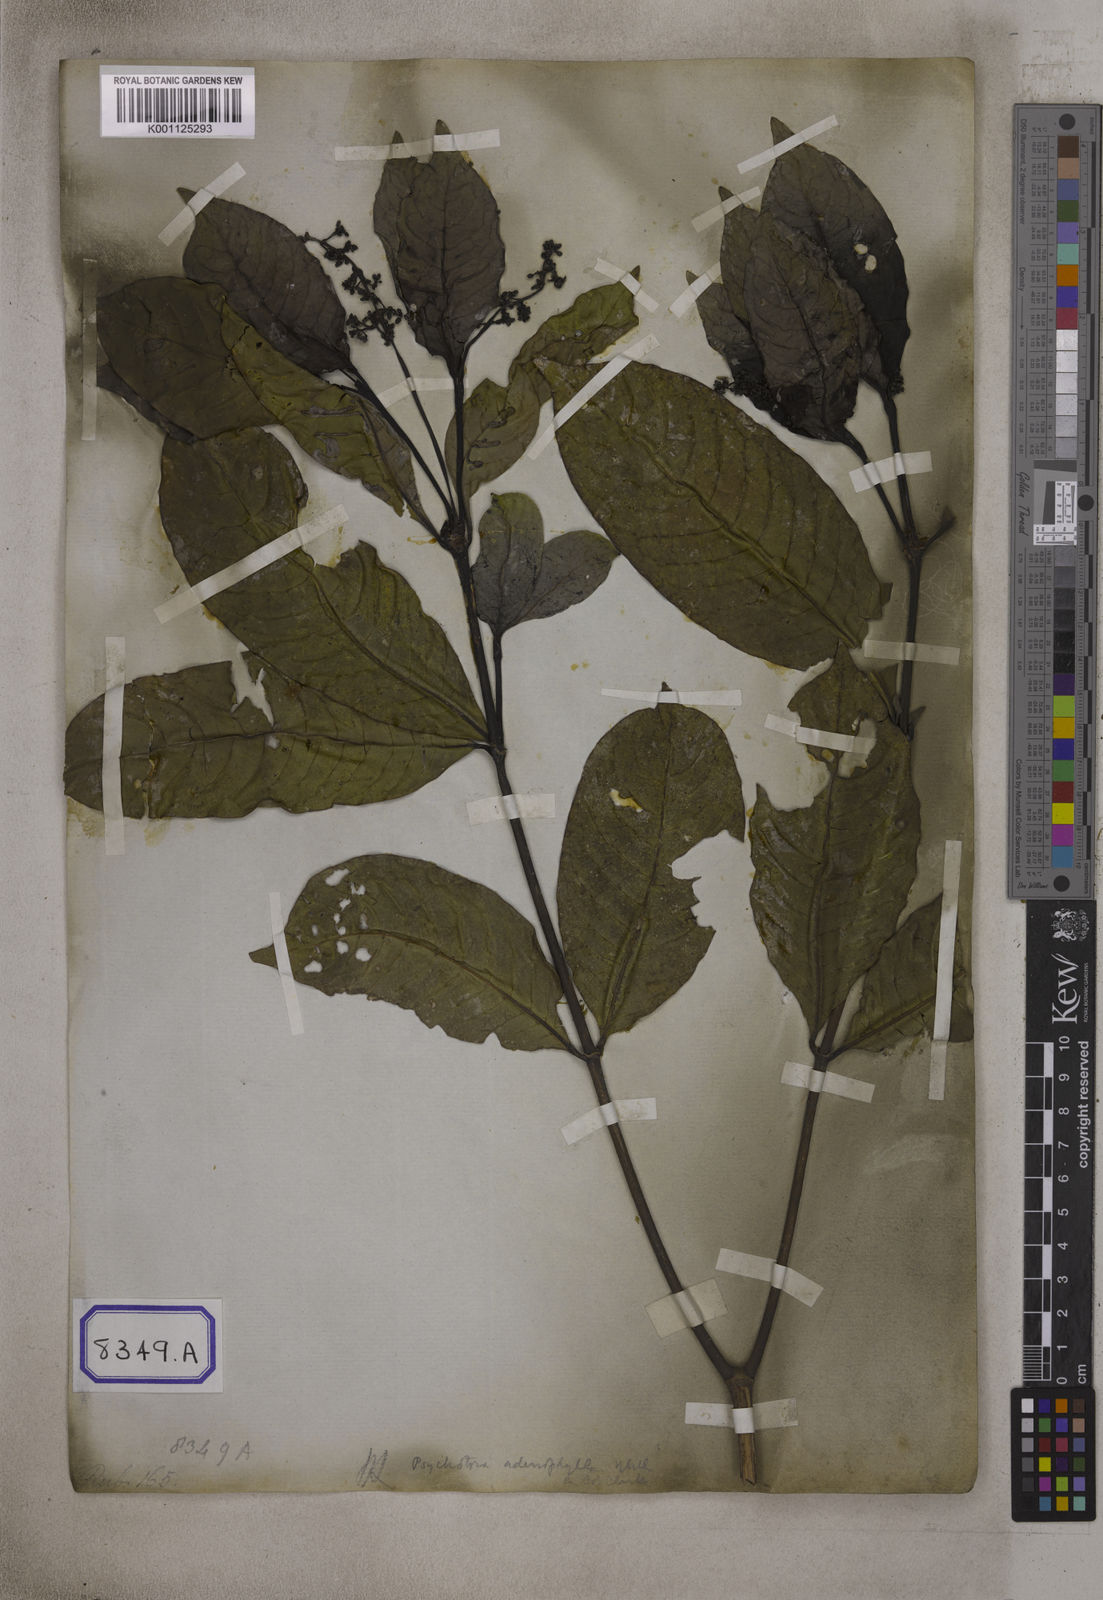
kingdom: Plantae
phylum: Tracheophyta
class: Magnoliopsida
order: Gentianales
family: Rubiaceae
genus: Psychotria
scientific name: Psychotria adenophylla
